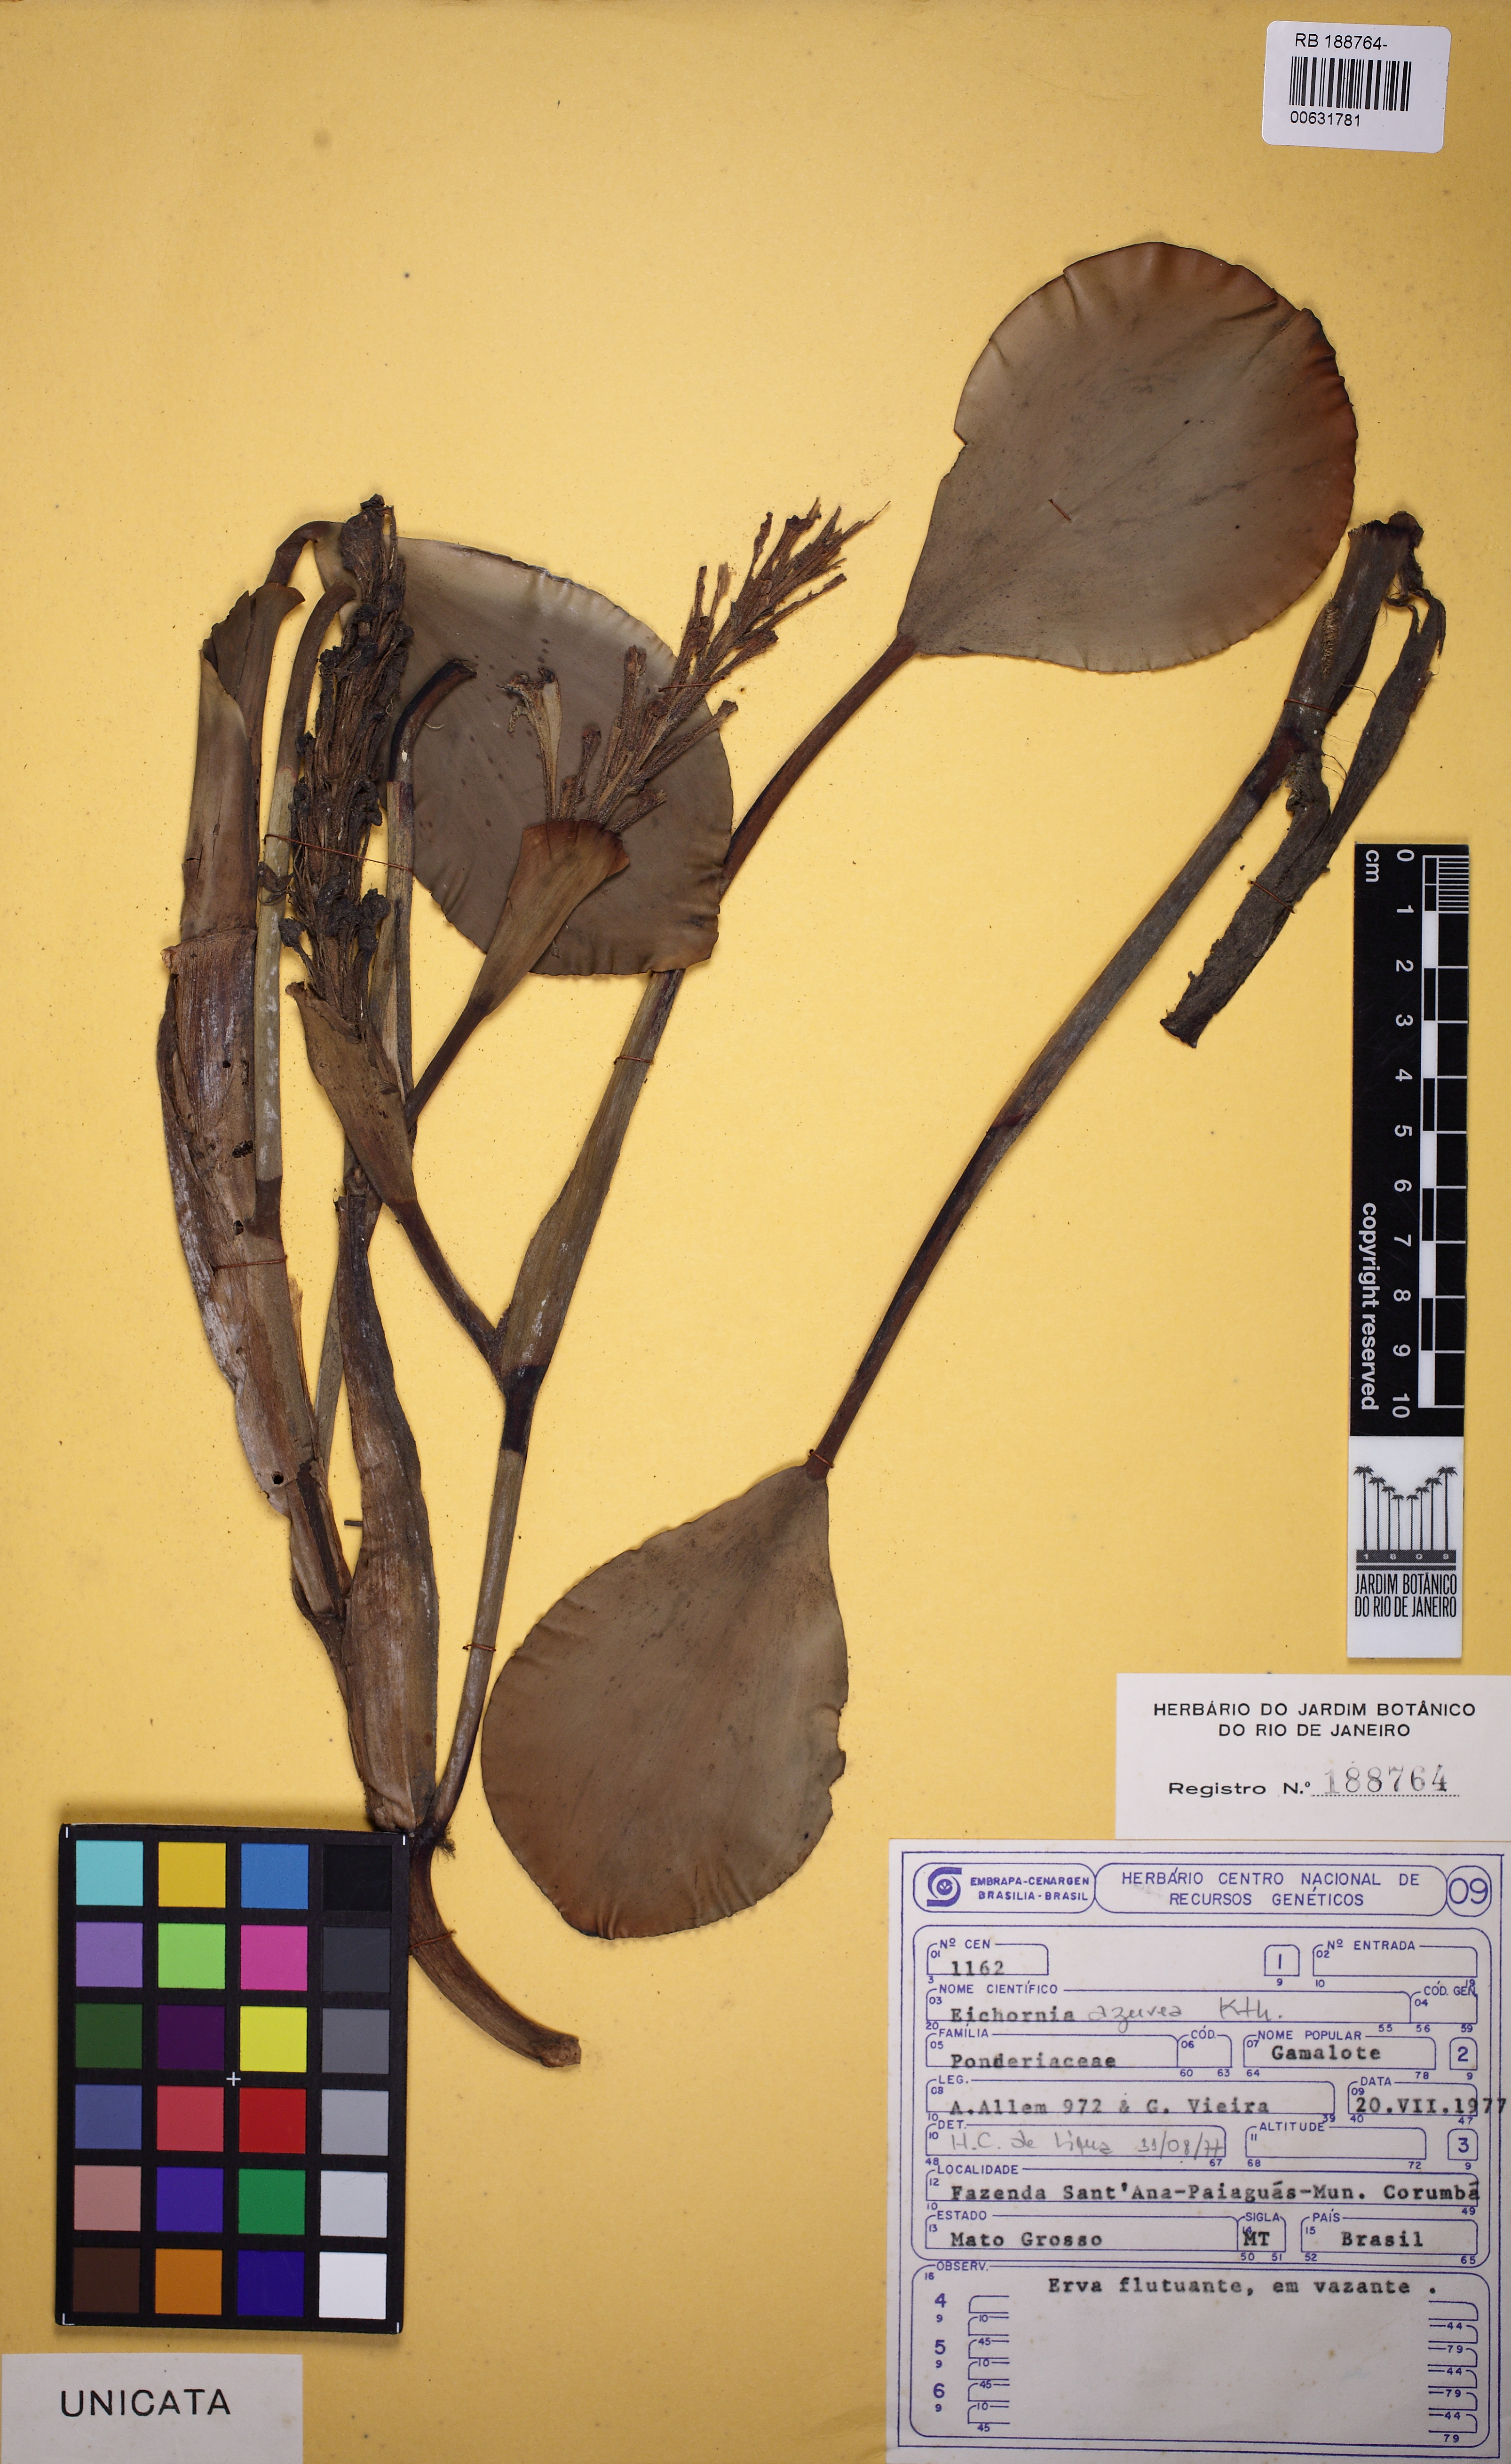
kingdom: Plantae
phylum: Tracheophyta
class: Liliopsida
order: Commelinales
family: Pontederiaceae
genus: Pontederia
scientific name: Pontederia azurea
